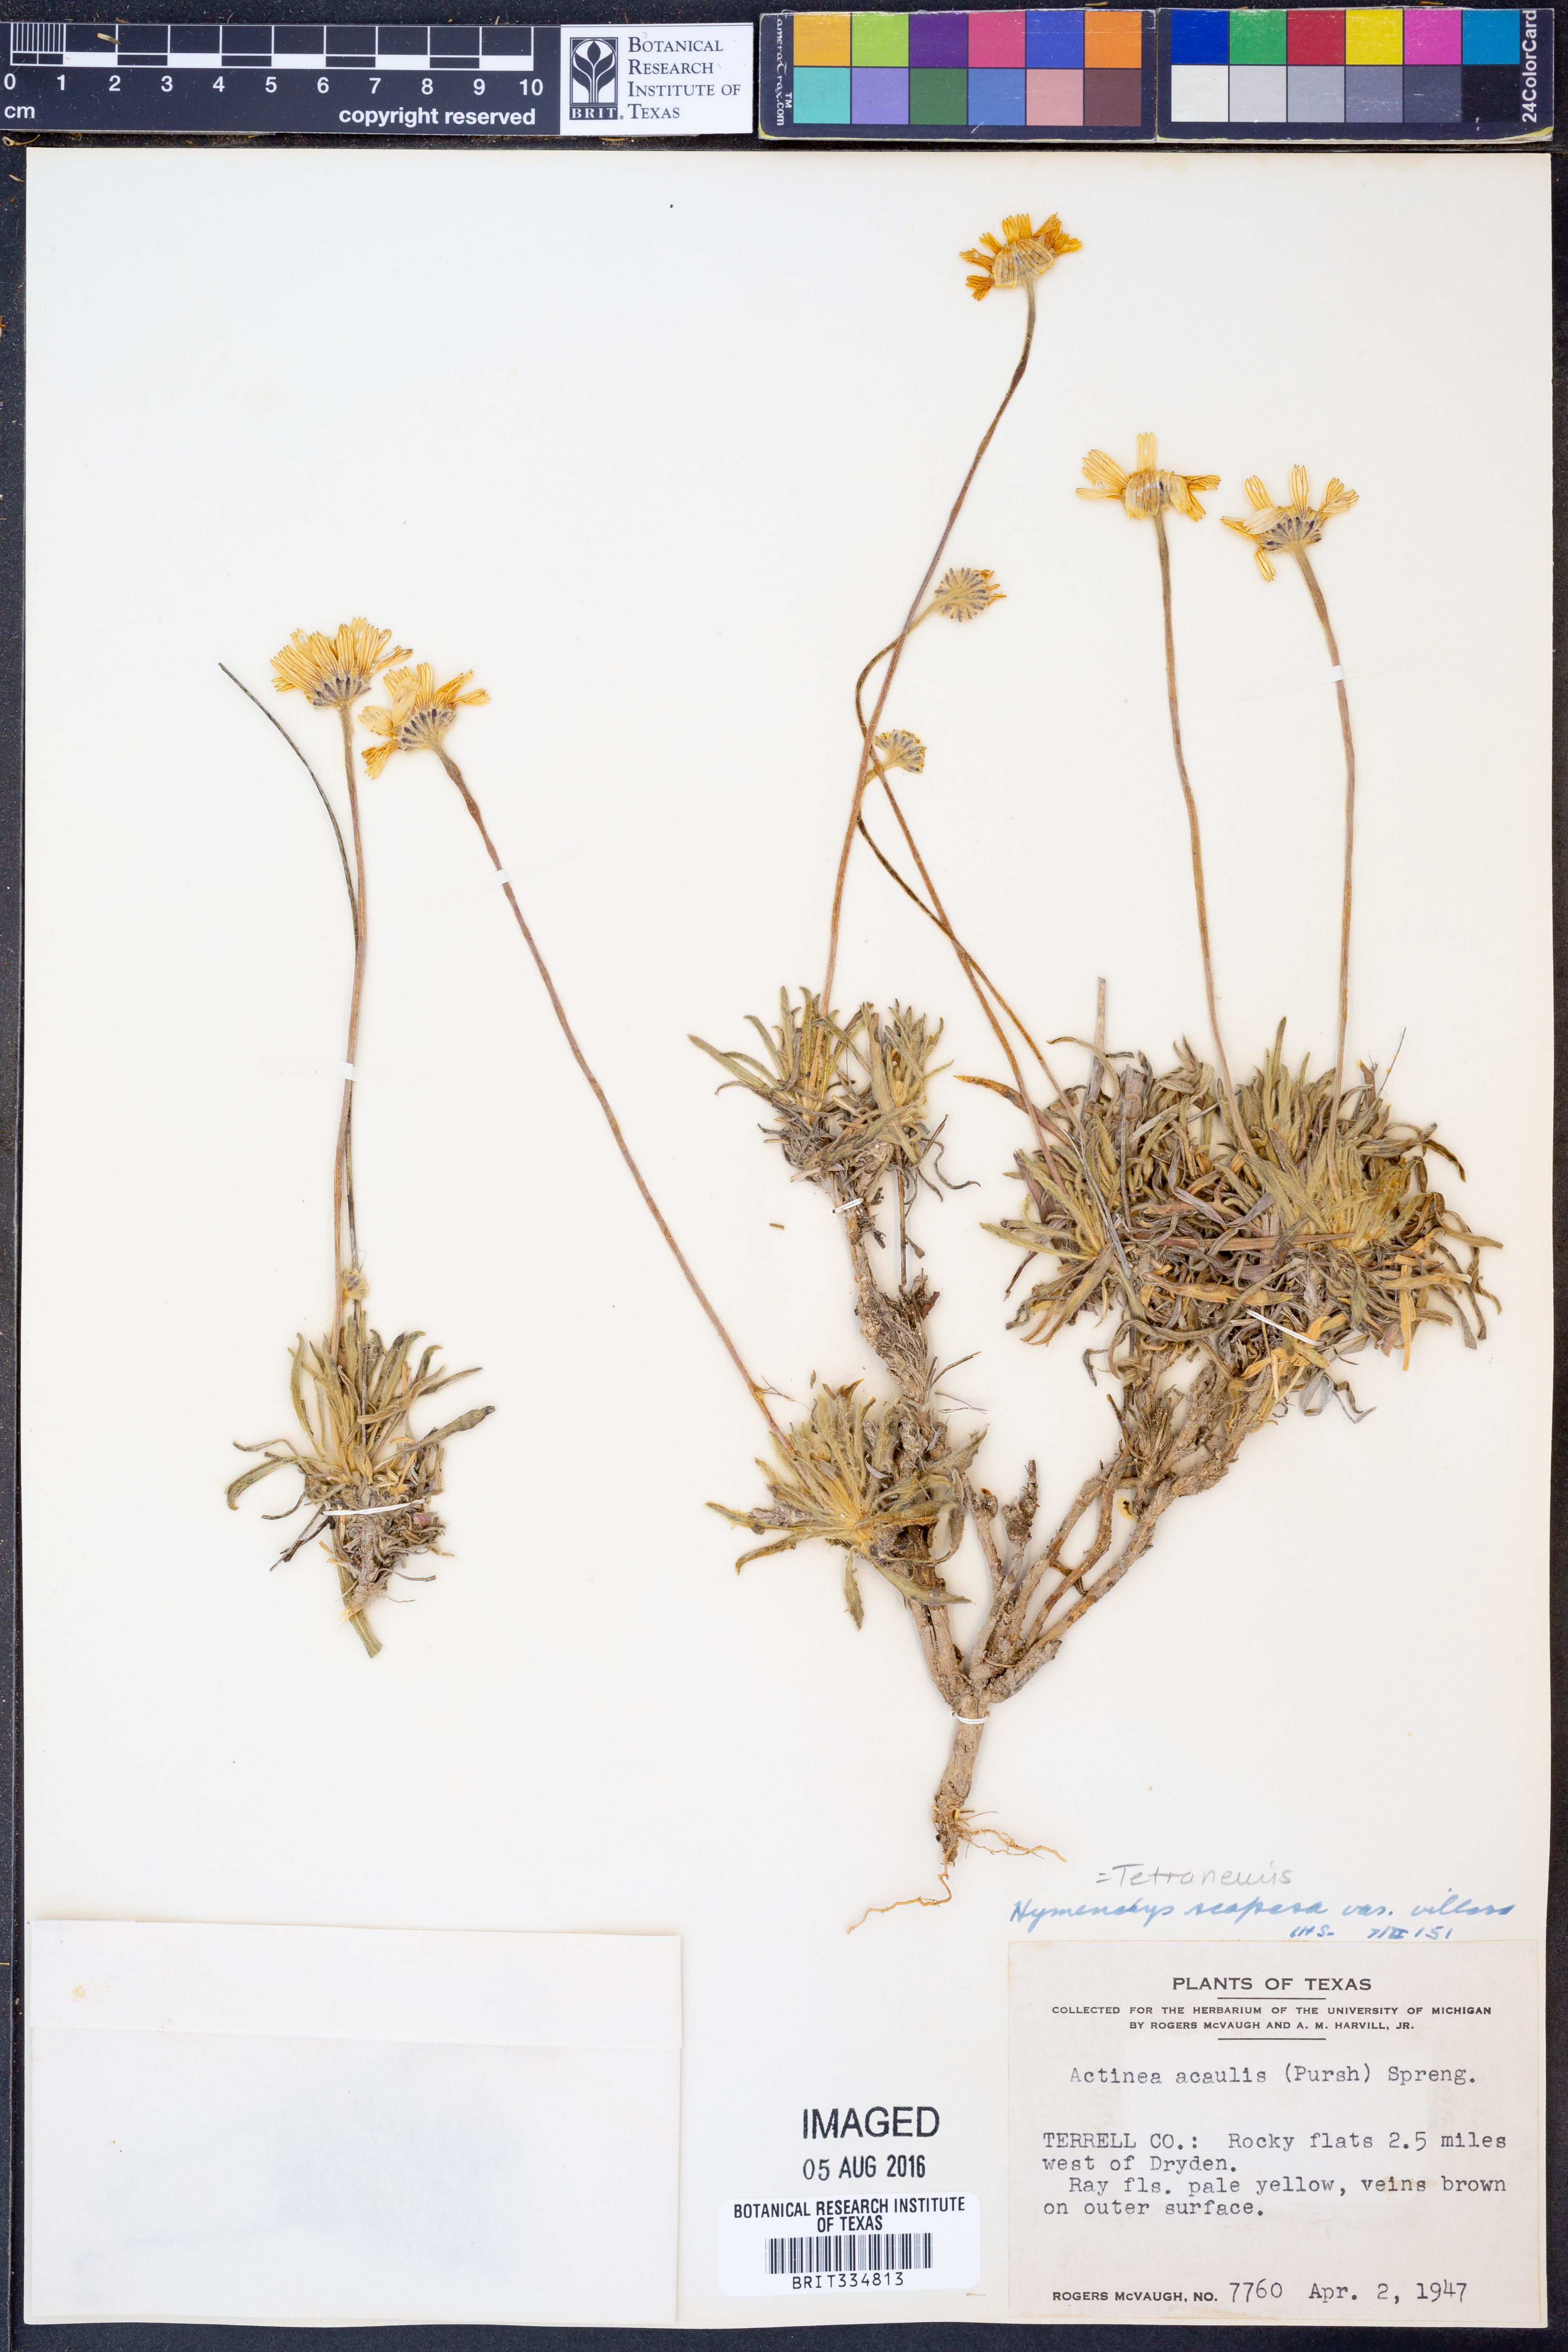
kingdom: Plantae
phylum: Tracheophyta
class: Magnoliopsida
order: Asterales
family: Asteraceae
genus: Tetraneuris
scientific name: Tetraneuris scaposa
